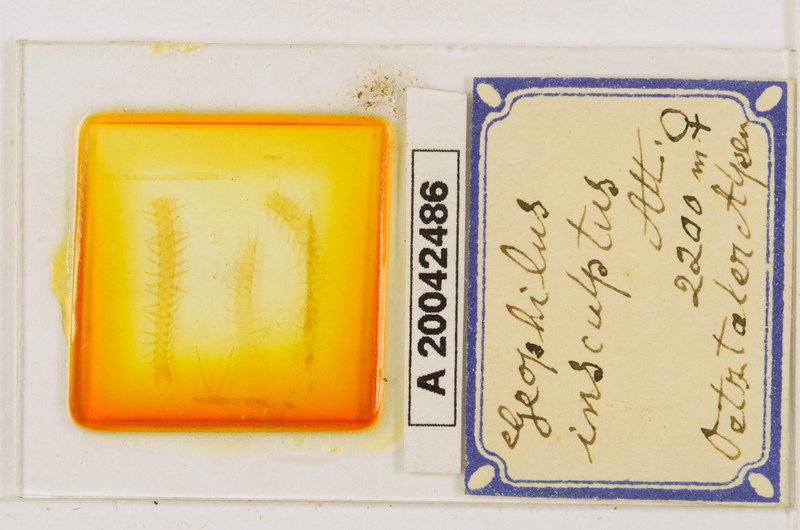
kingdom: Animalia
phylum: Arthropoda
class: Chilopoda
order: Geophilomorpha
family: Geophilidae
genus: Geophilus
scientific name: Geophilus insculptus
